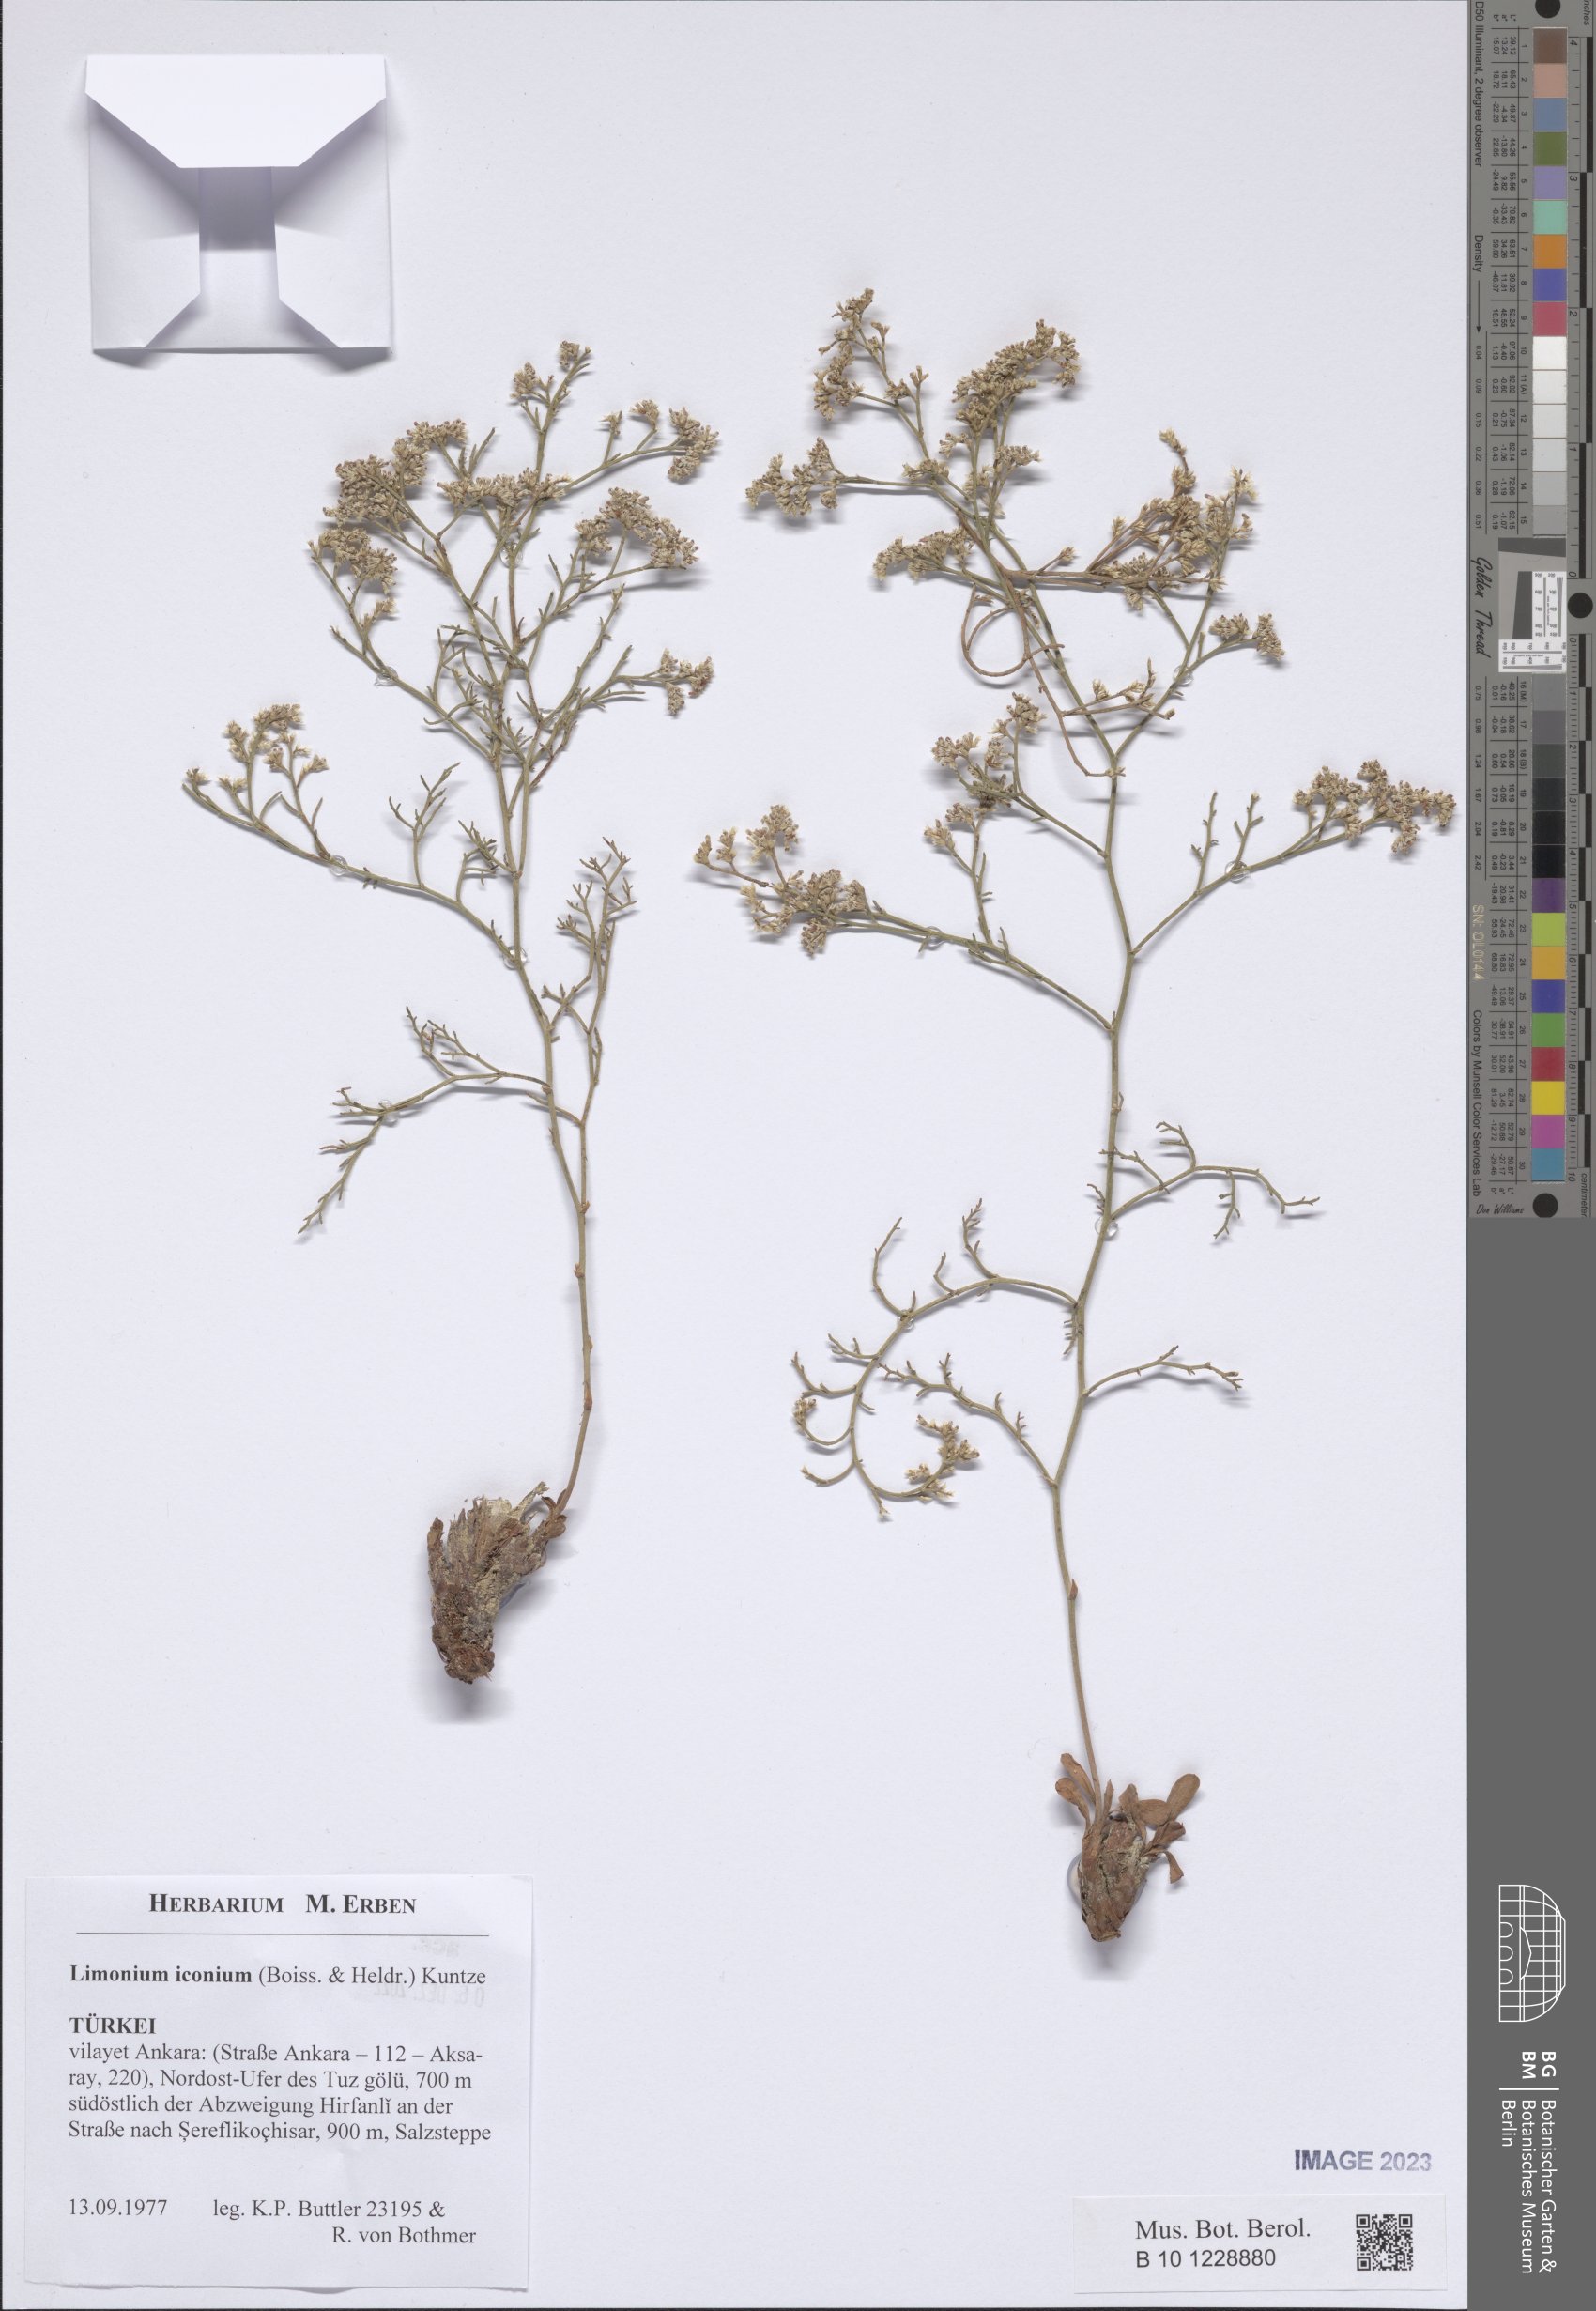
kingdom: Plantae
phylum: Tracheophyta
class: Magnoliopsida
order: Caryophyllales
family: Plumbaginaceae
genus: Limonium
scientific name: Limonium iconium
